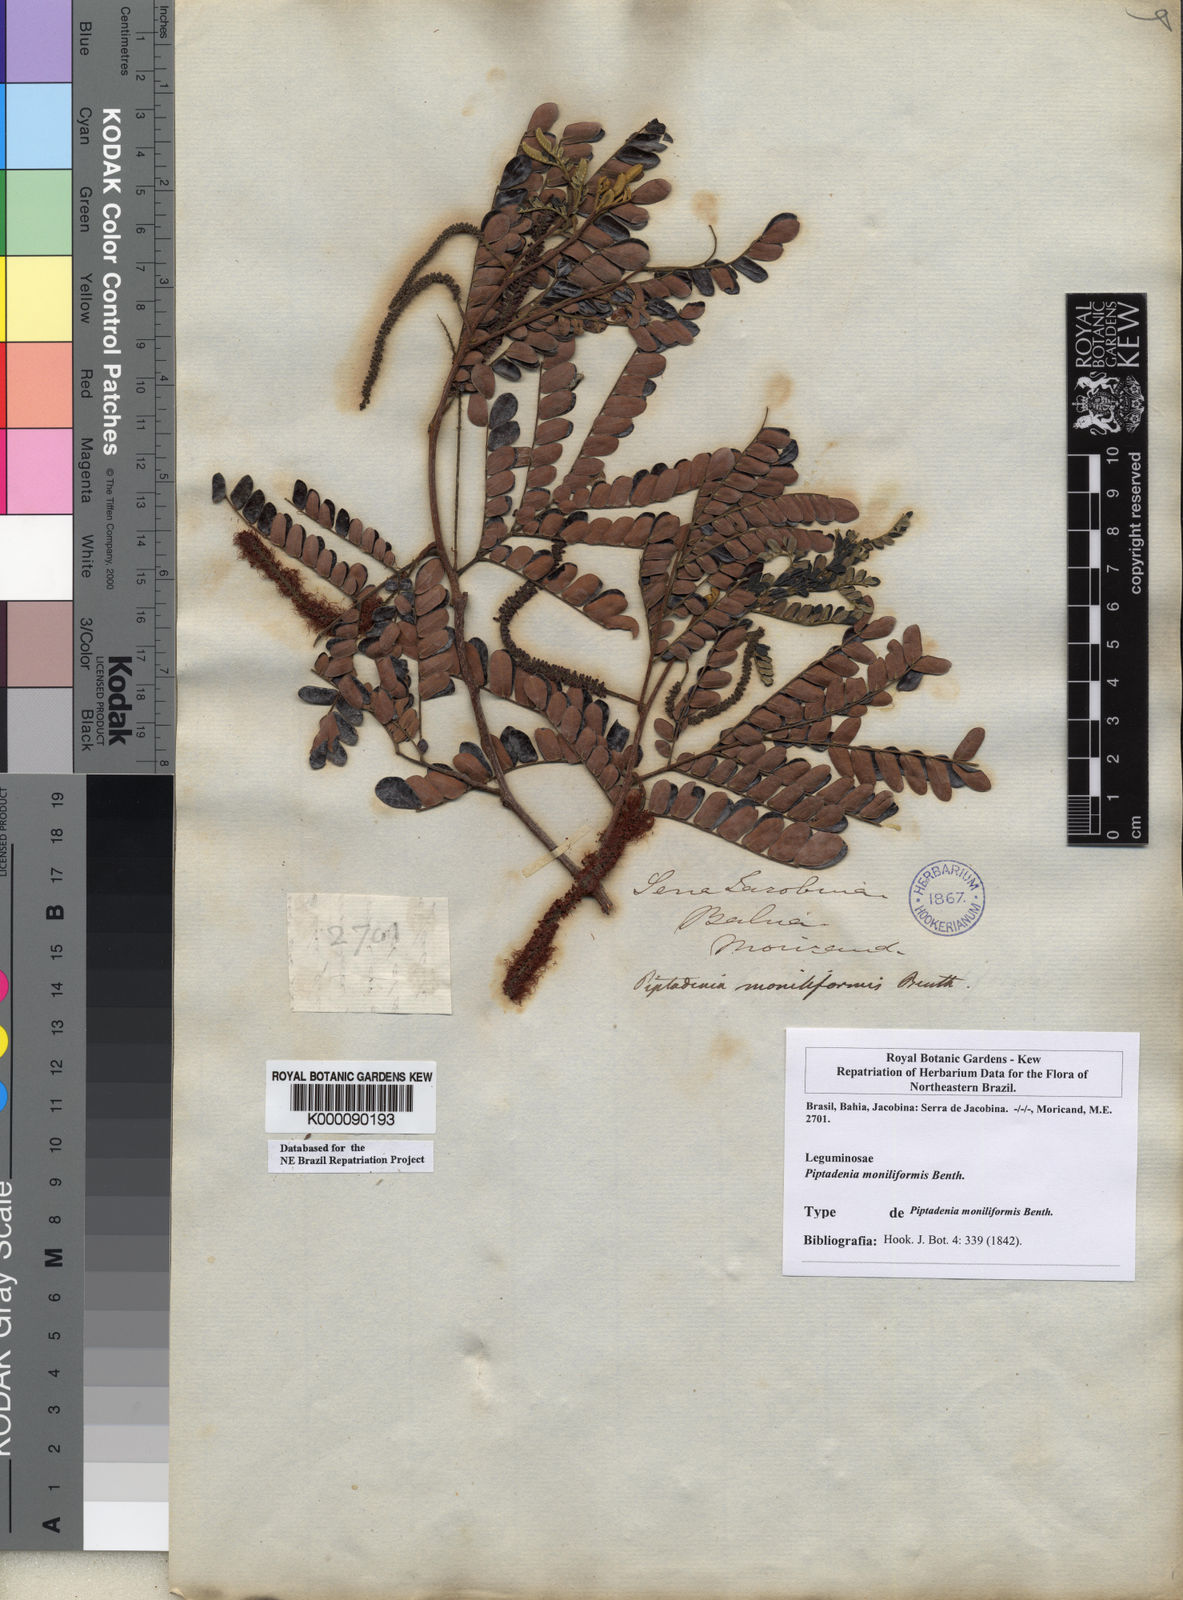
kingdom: Plantae
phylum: Tracheophyta
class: Magnoliopsida
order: Fabales
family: Fabaceae
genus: Pityrocarpa
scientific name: Pityrocarpa moniliformis
